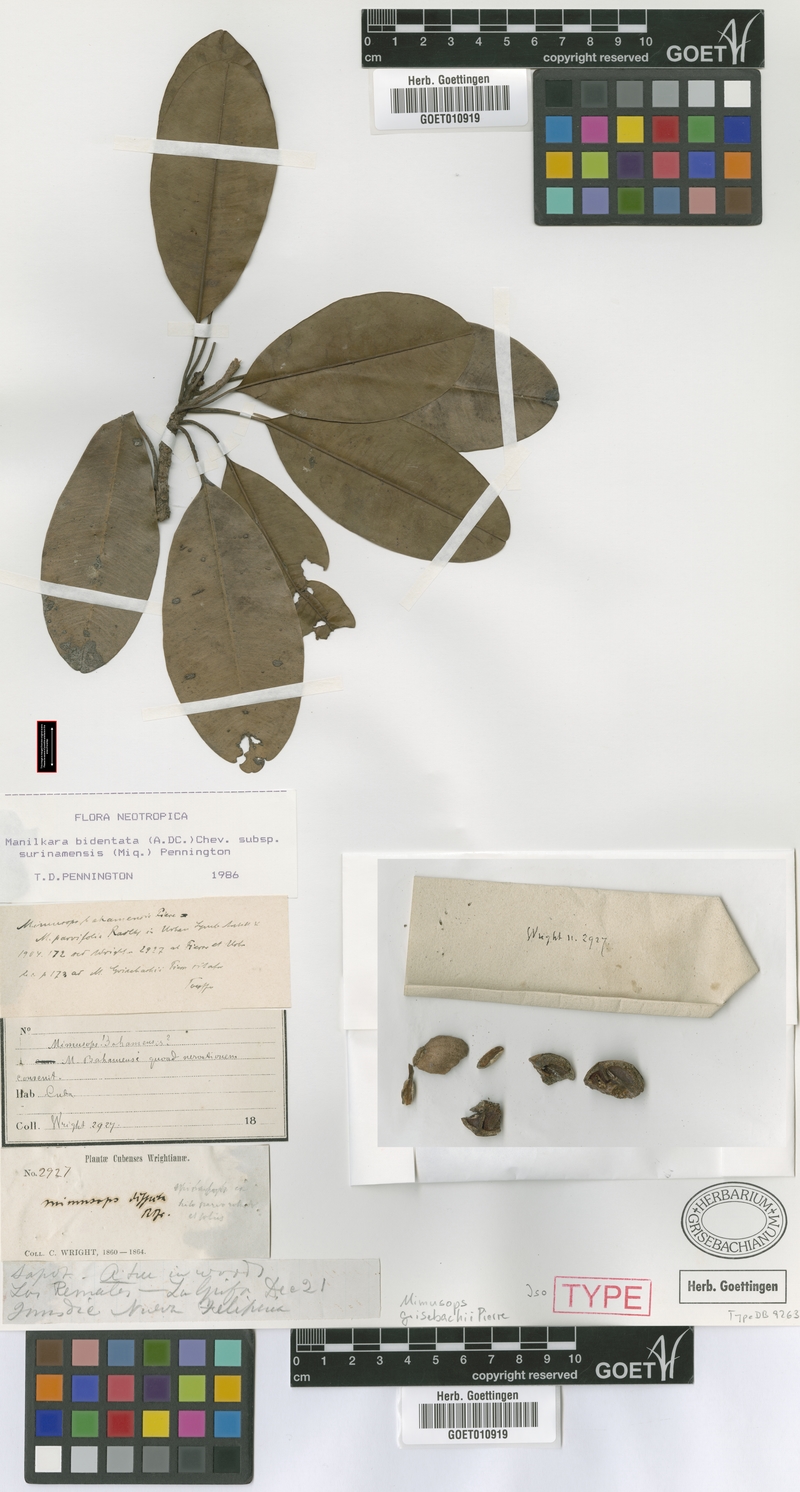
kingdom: Plantae
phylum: Tracheophyta
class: Magnoliopsida
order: Ericales
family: Sapotaceae
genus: Manilkara
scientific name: Manilkara bidentata
